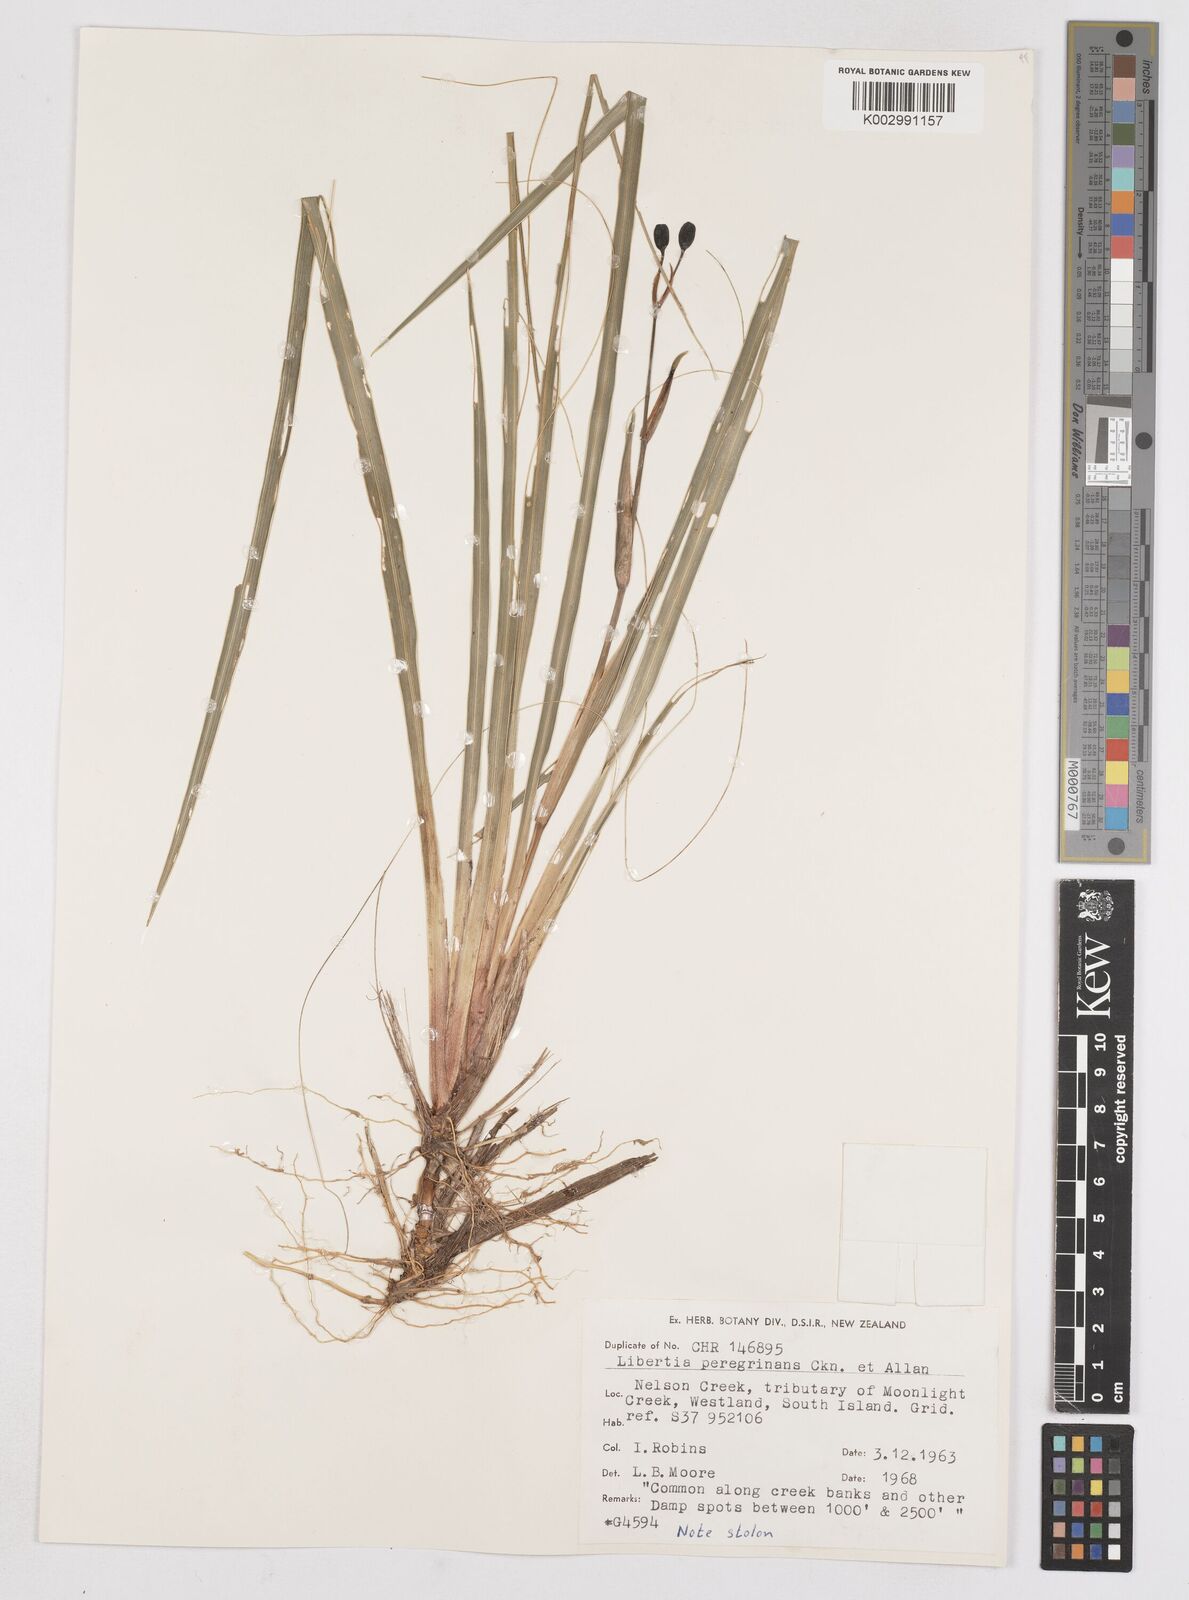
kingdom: Plantae
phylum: Tracheophyta
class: Liliopsida
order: Asparagales
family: Iridaceae
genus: Libertia
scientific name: Libertia peregrinans
